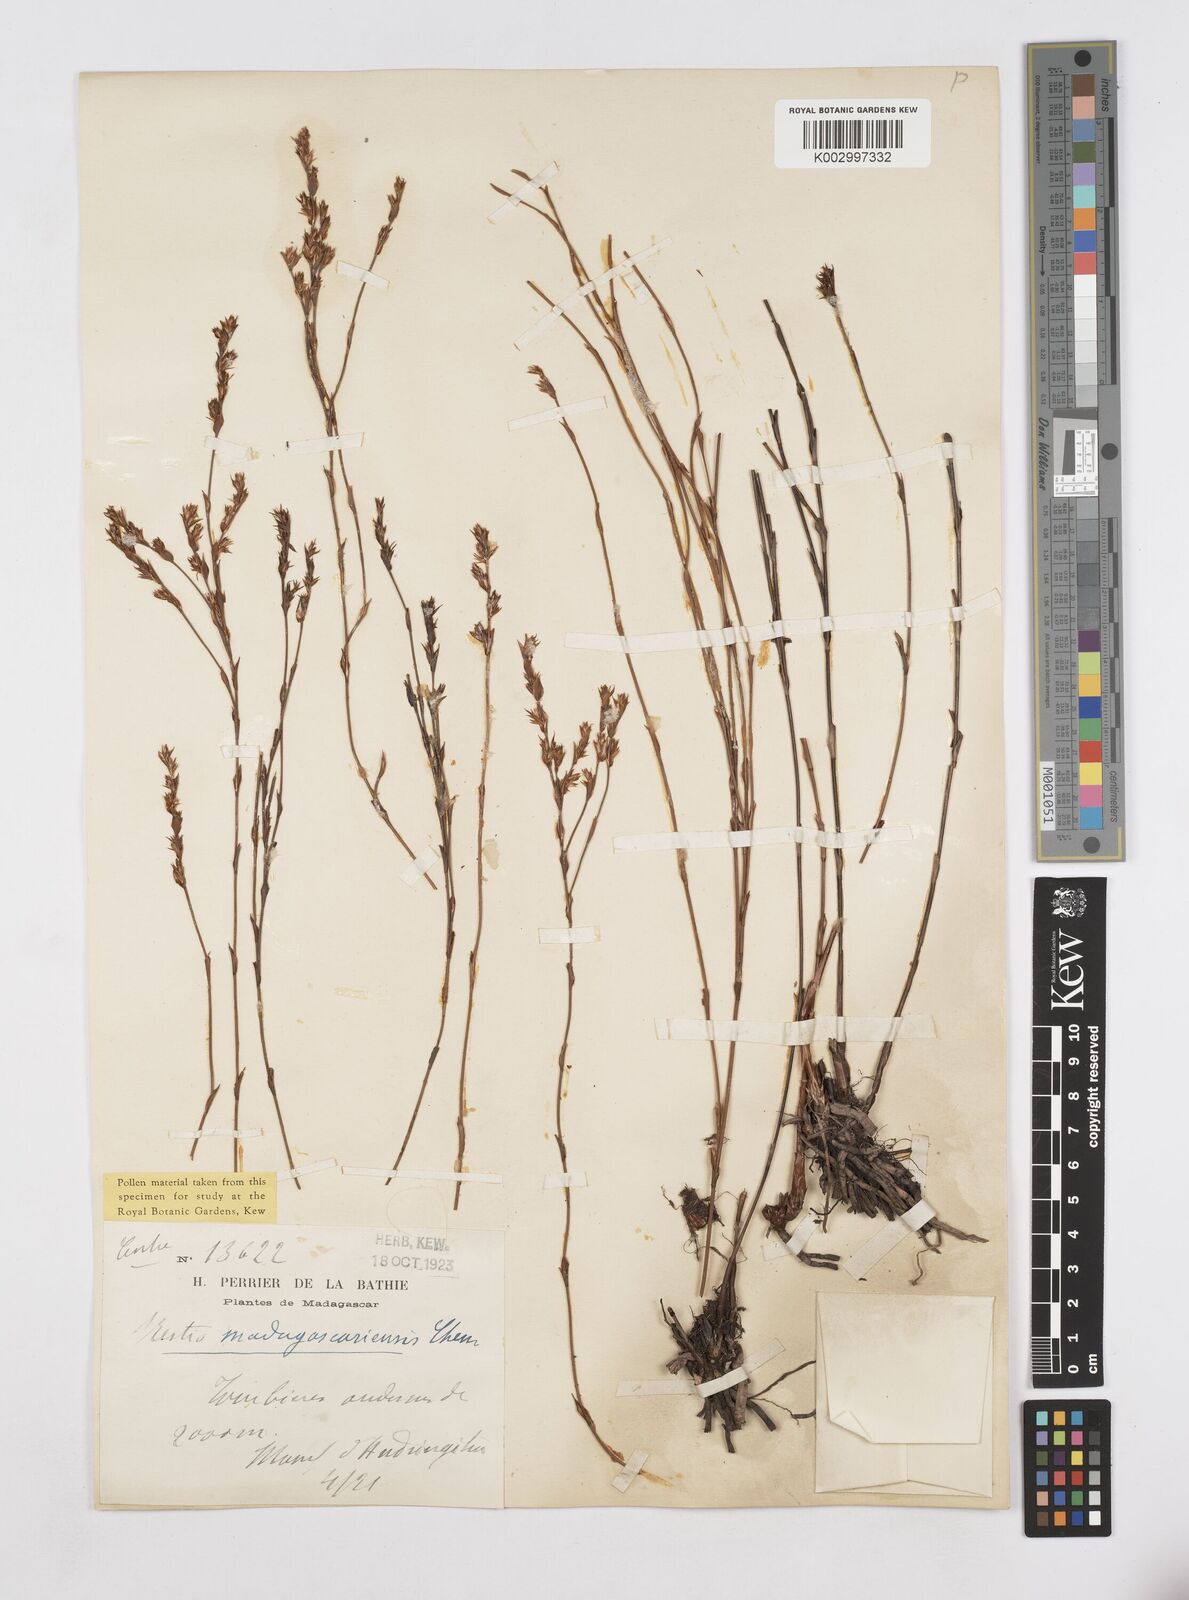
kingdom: Plantae
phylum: Tracheophyta
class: Liliopsida
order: Poales
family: Restionaceae
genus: Platycaulos
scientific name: Platycaulos
